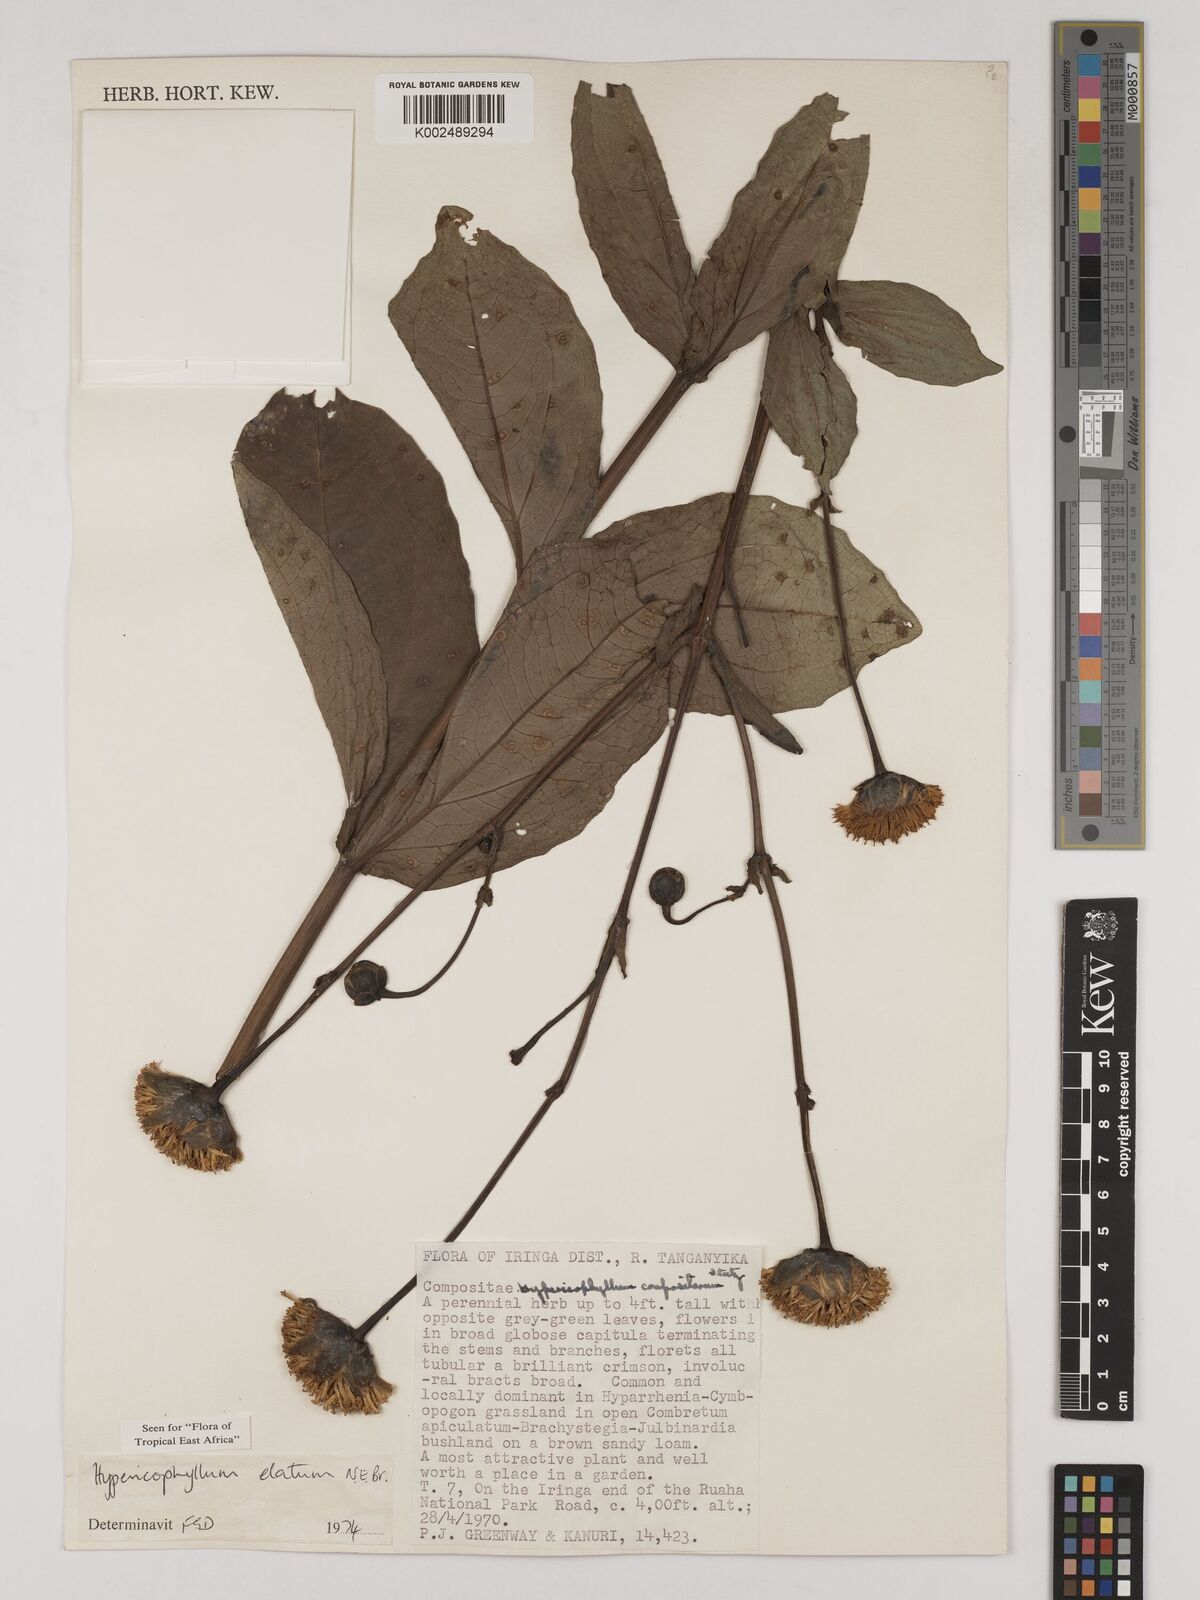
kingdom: Plantae
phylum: Tracheophyta
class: Magnoliopsida
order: Asterales
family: Asteraceae
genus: Hypericophyllum
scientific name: Hypericophyllum elatum
